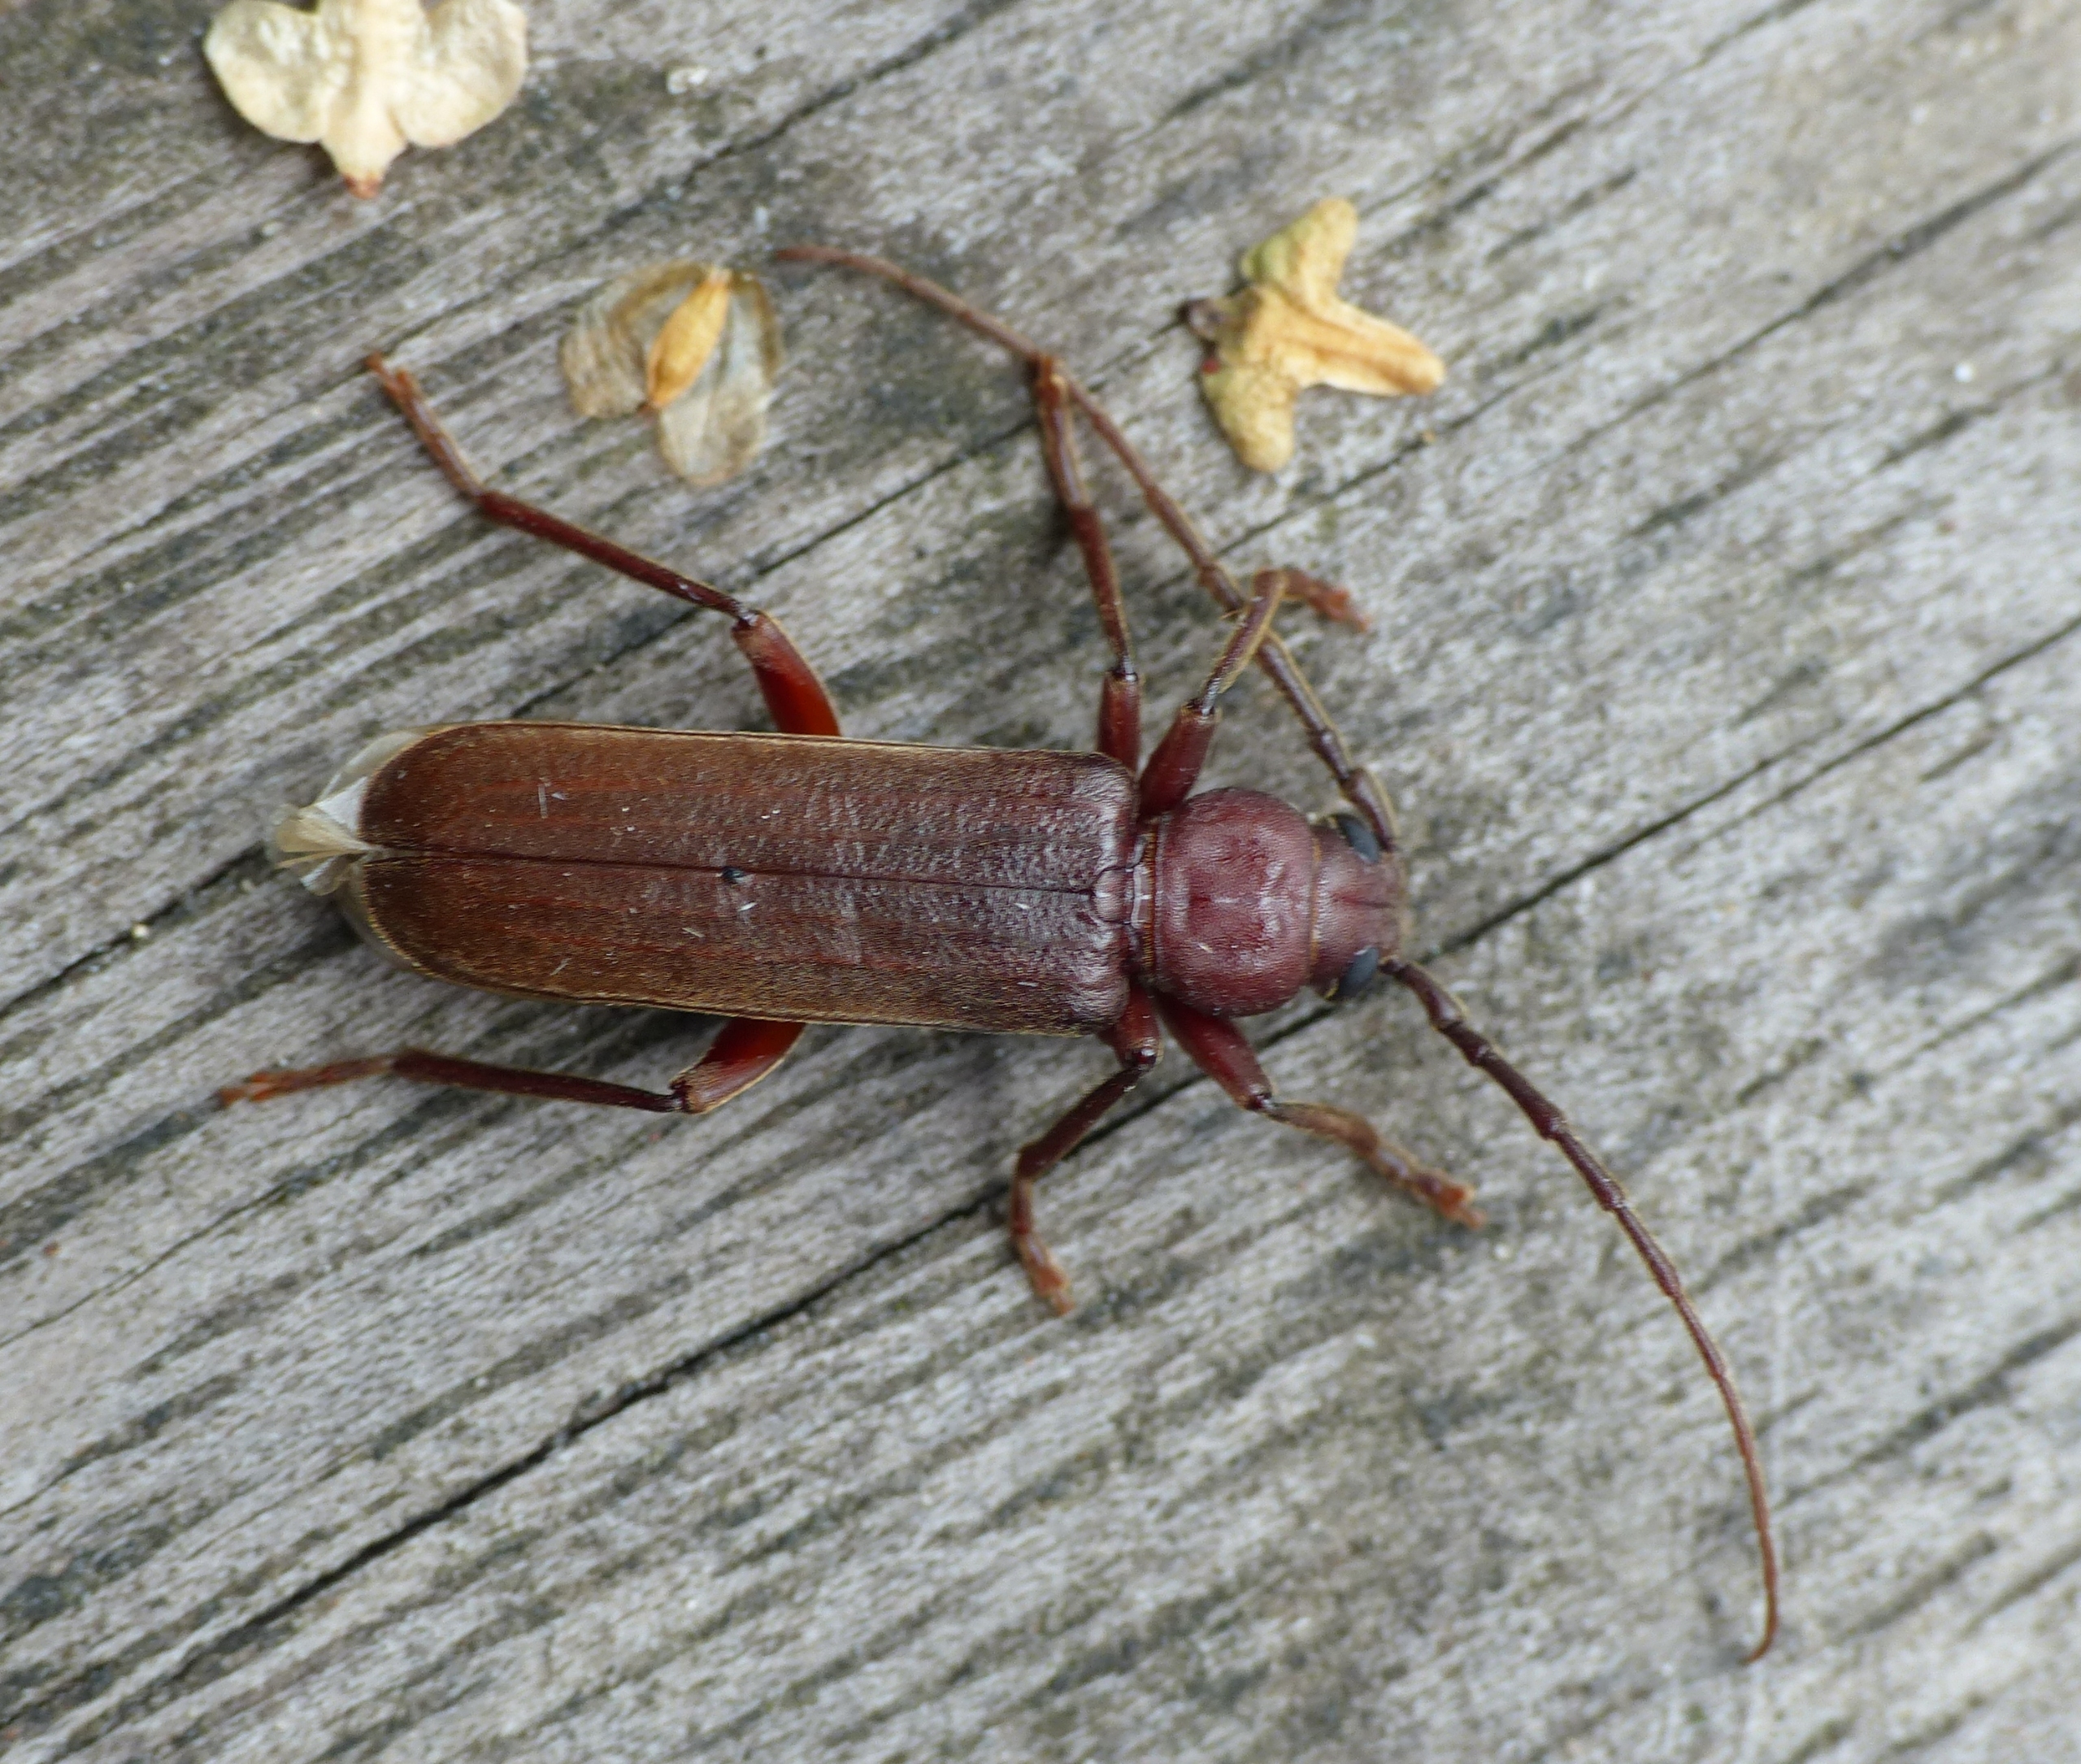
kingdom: Animalia
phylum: Arthropoda
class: Insecta
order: Coleoptera
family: Cerambycidae
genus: Arhopalus
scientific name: Arhopalus rusticus
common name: Brun barkbuk
